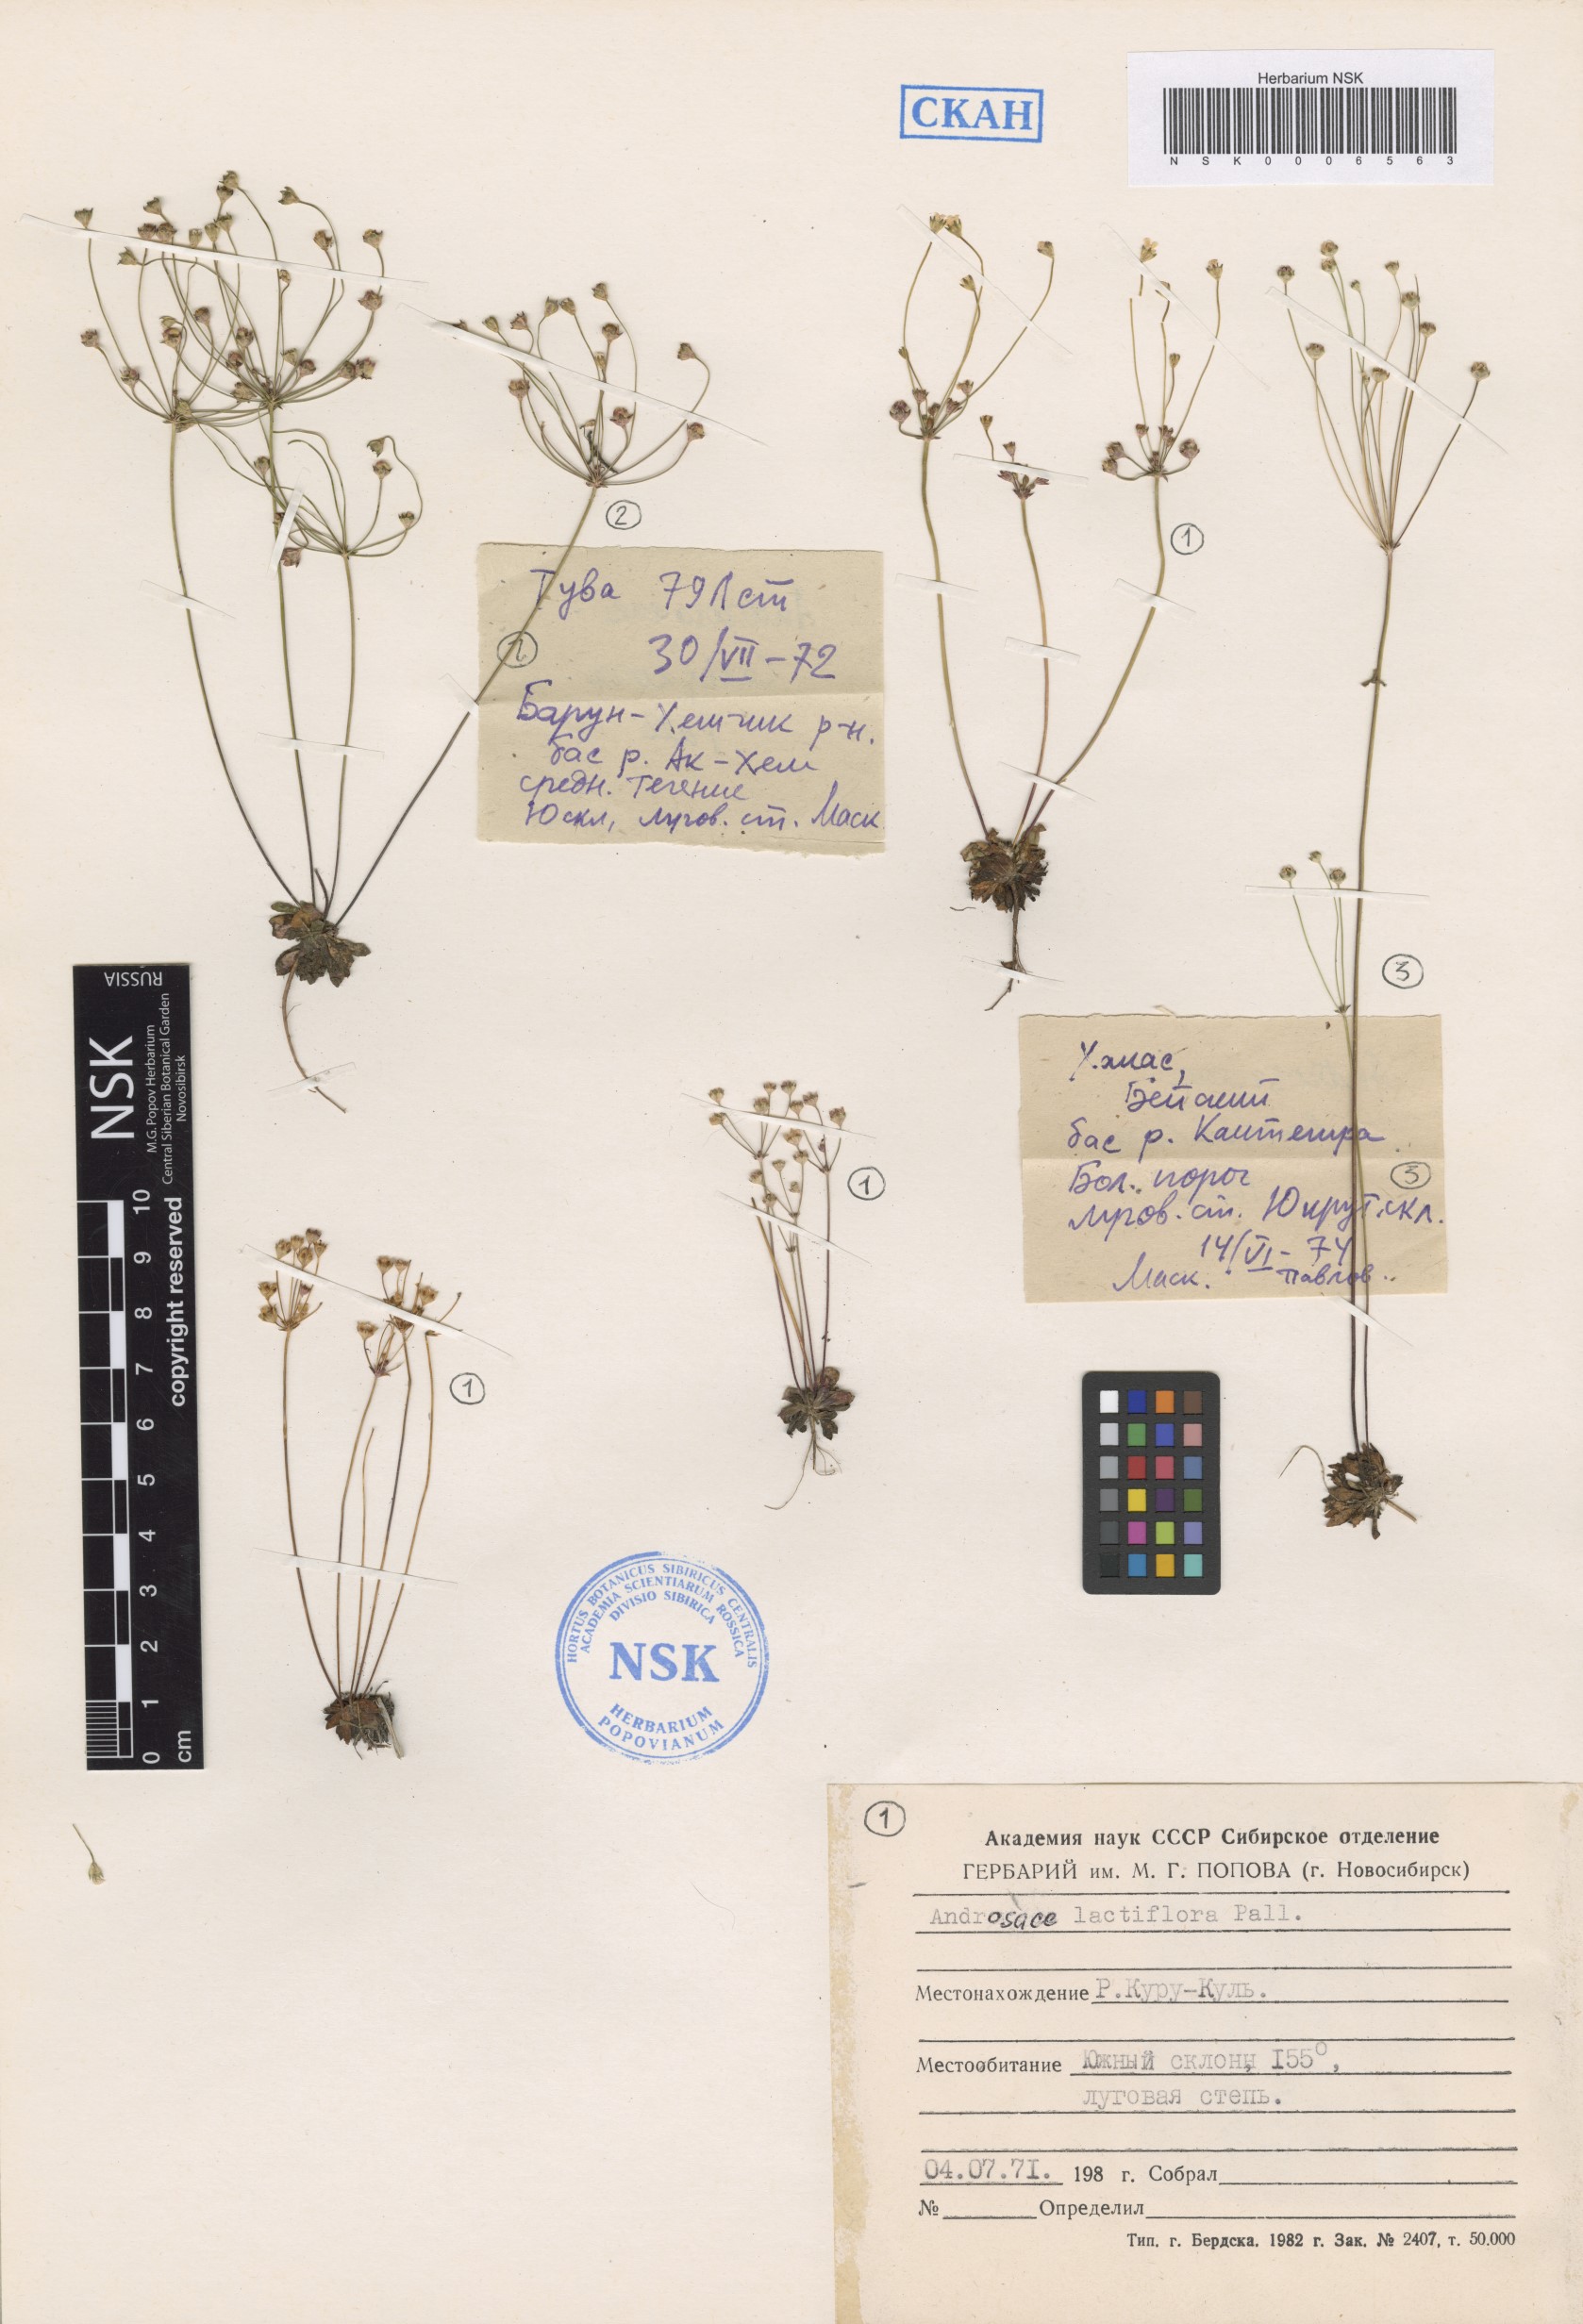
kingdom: Plantae
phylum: Tracheophyta
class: Magnoliopsida
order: Ericales
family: Primulaceae
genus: Androsace
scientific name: Androsace lactiflora
